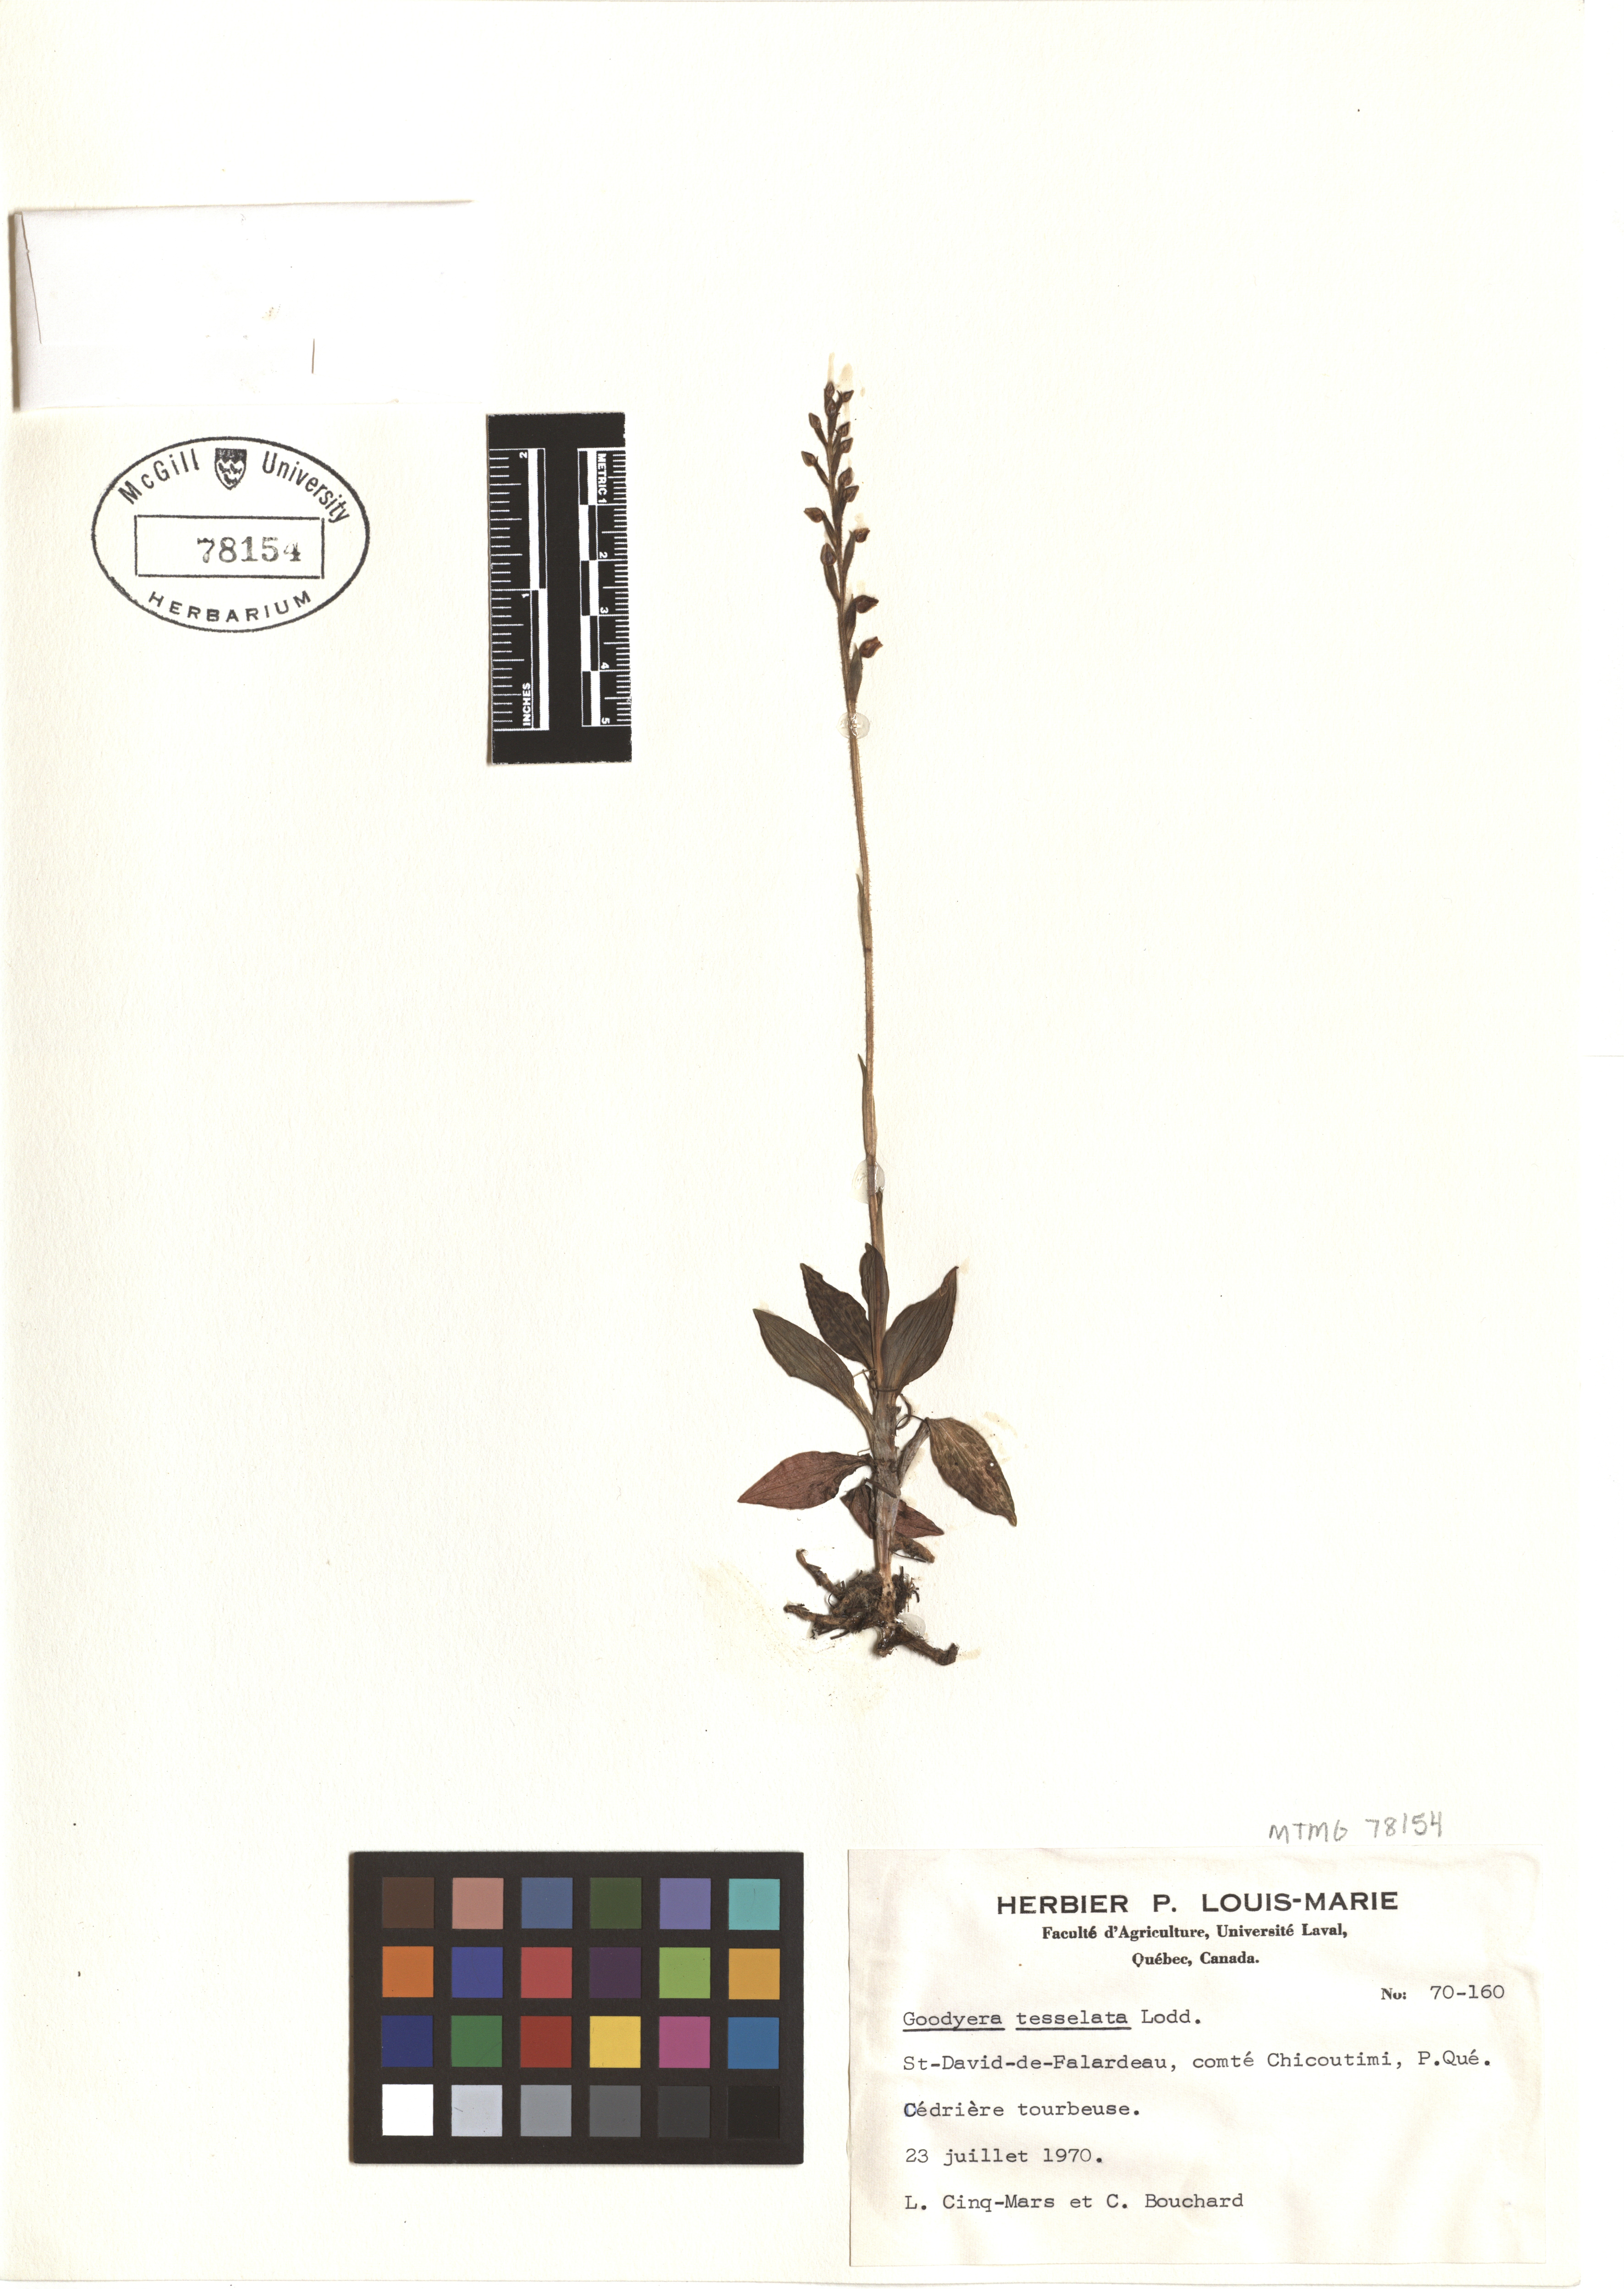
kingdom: Plantae
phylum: Tracheophyta
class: Liliopsida
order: Asparagales
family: Orchidaceae
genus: Goodyera
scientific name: Goodyera tesselata
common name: Checkered rattlesnake-plantain
